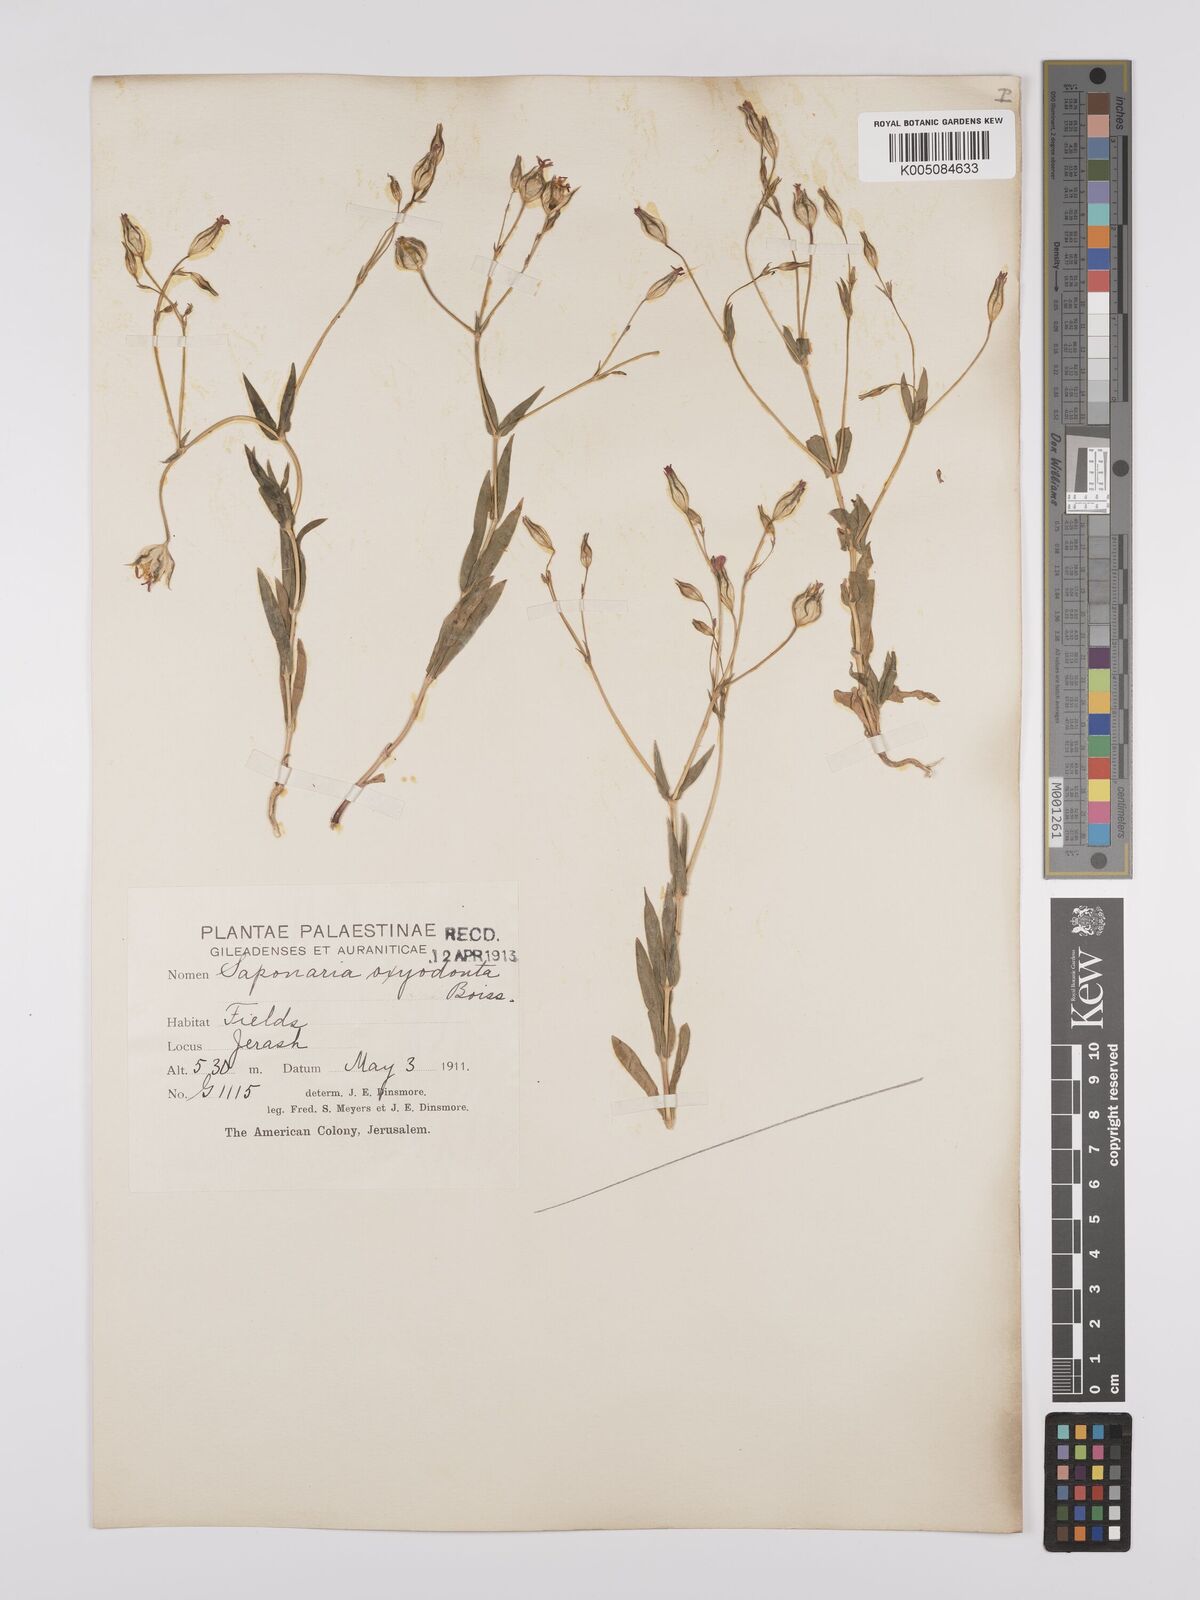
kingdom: Plantae
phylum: Tracheophyta
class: Magnoliopsida
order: Caryophyllales
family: Caryophyllaceae
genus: Gypsophila
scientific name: Gypsophila vaccaria
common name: Cow soapwort
